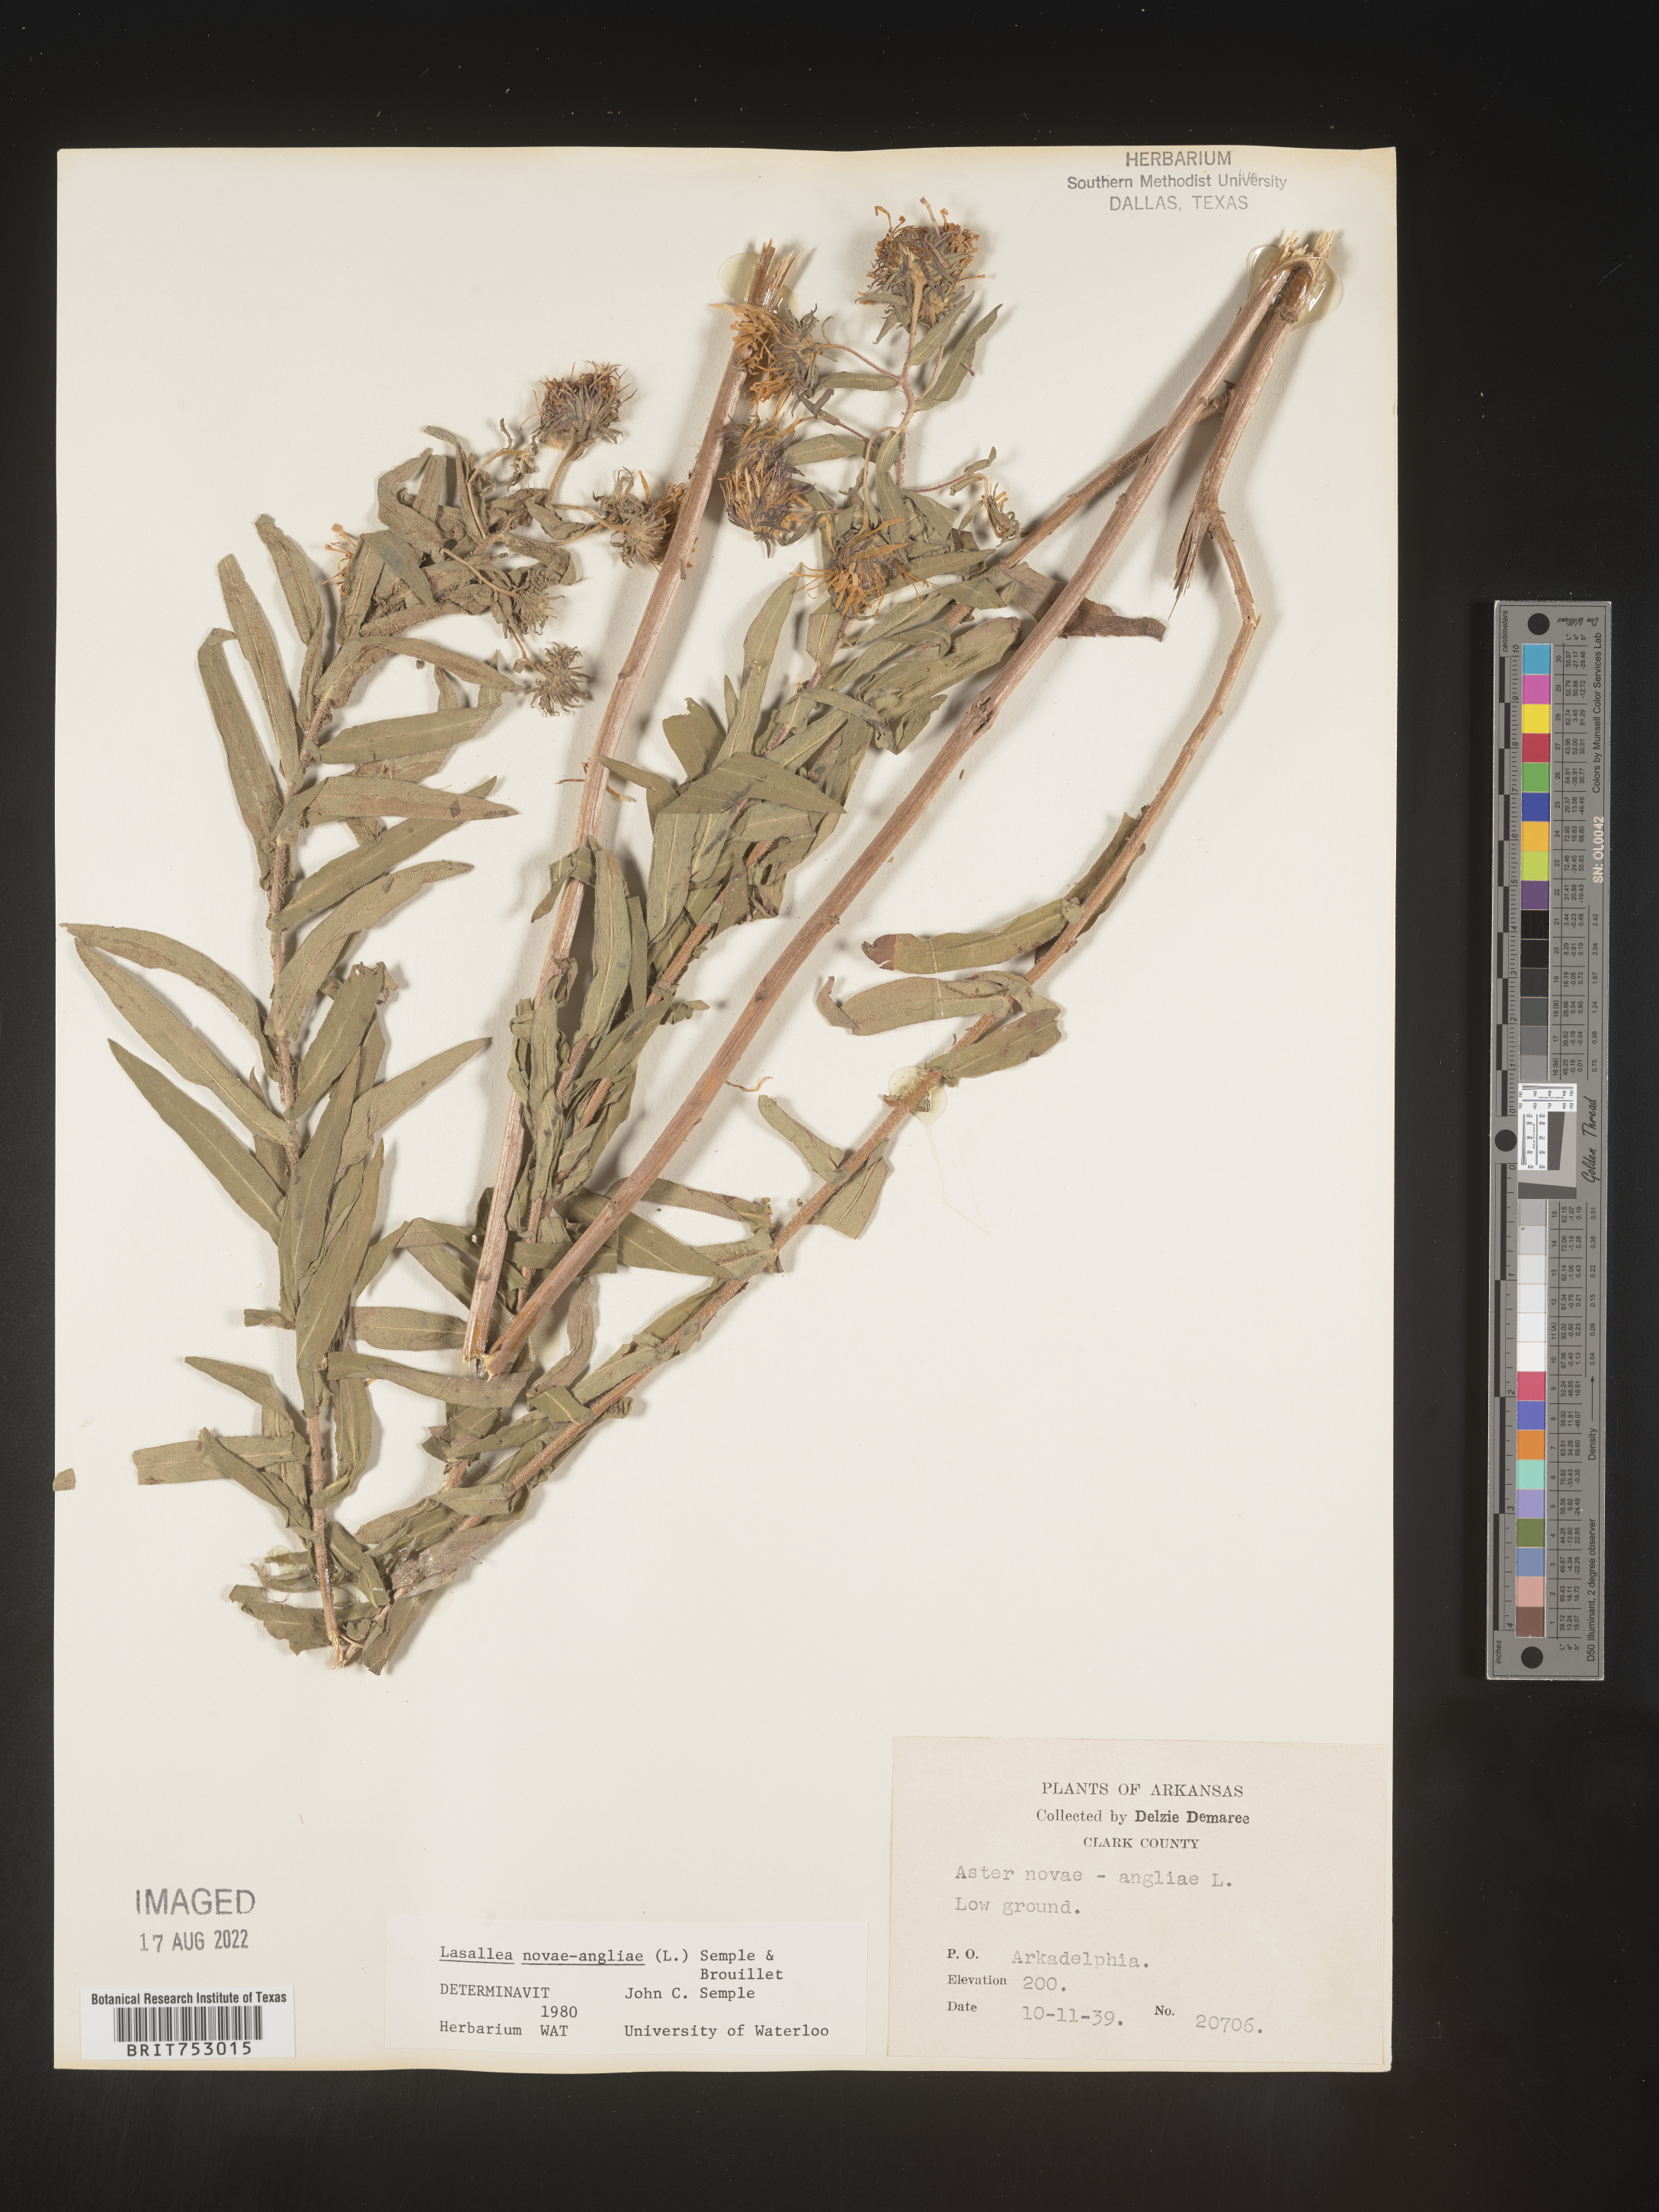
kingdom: Plantae
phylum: Tracheophyta
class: Magnoliopsida
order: Asterales
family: Asteraceae
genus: Symphyotrichum
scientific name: Symphyotrichum novae-angliae
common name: Michaelmas daisy
